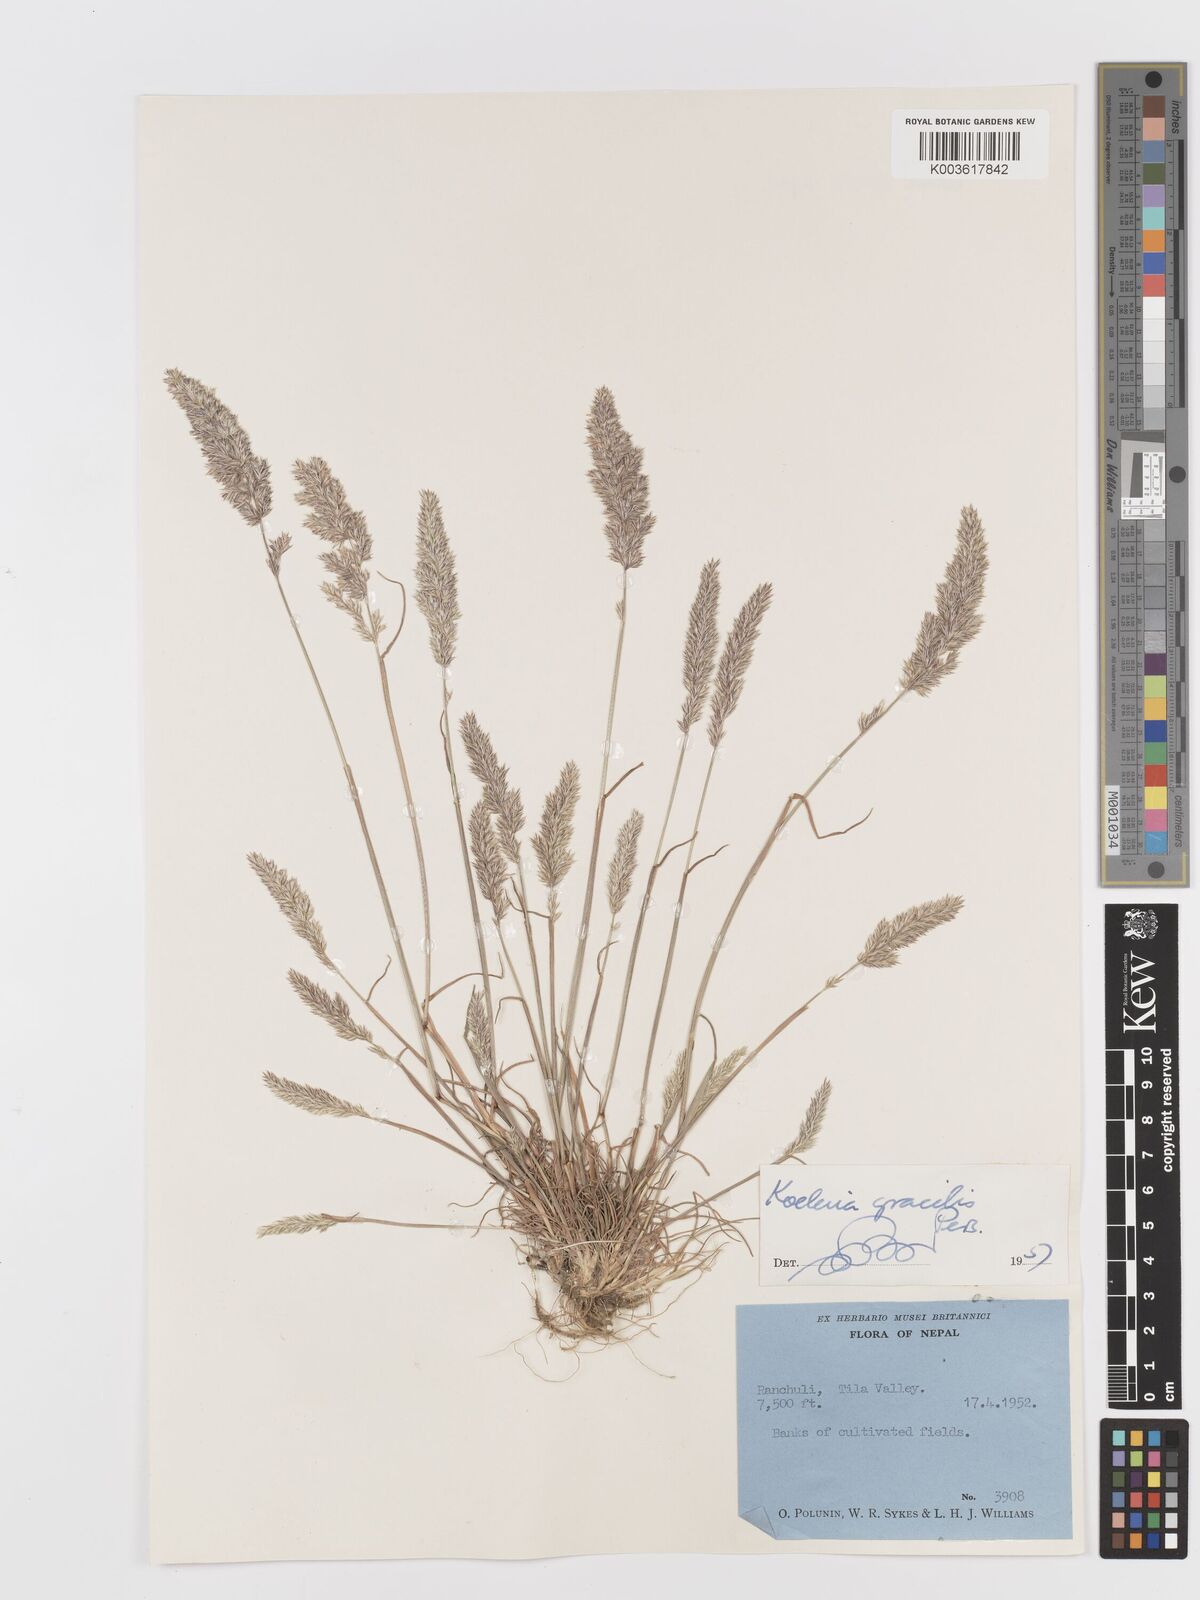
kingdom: Plantae
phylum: Tracheophyta
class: Liliopsida
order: Poales
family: Poaceae
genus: Koeleria
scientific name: Koeleria macrantha
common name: Crested hair-grass
